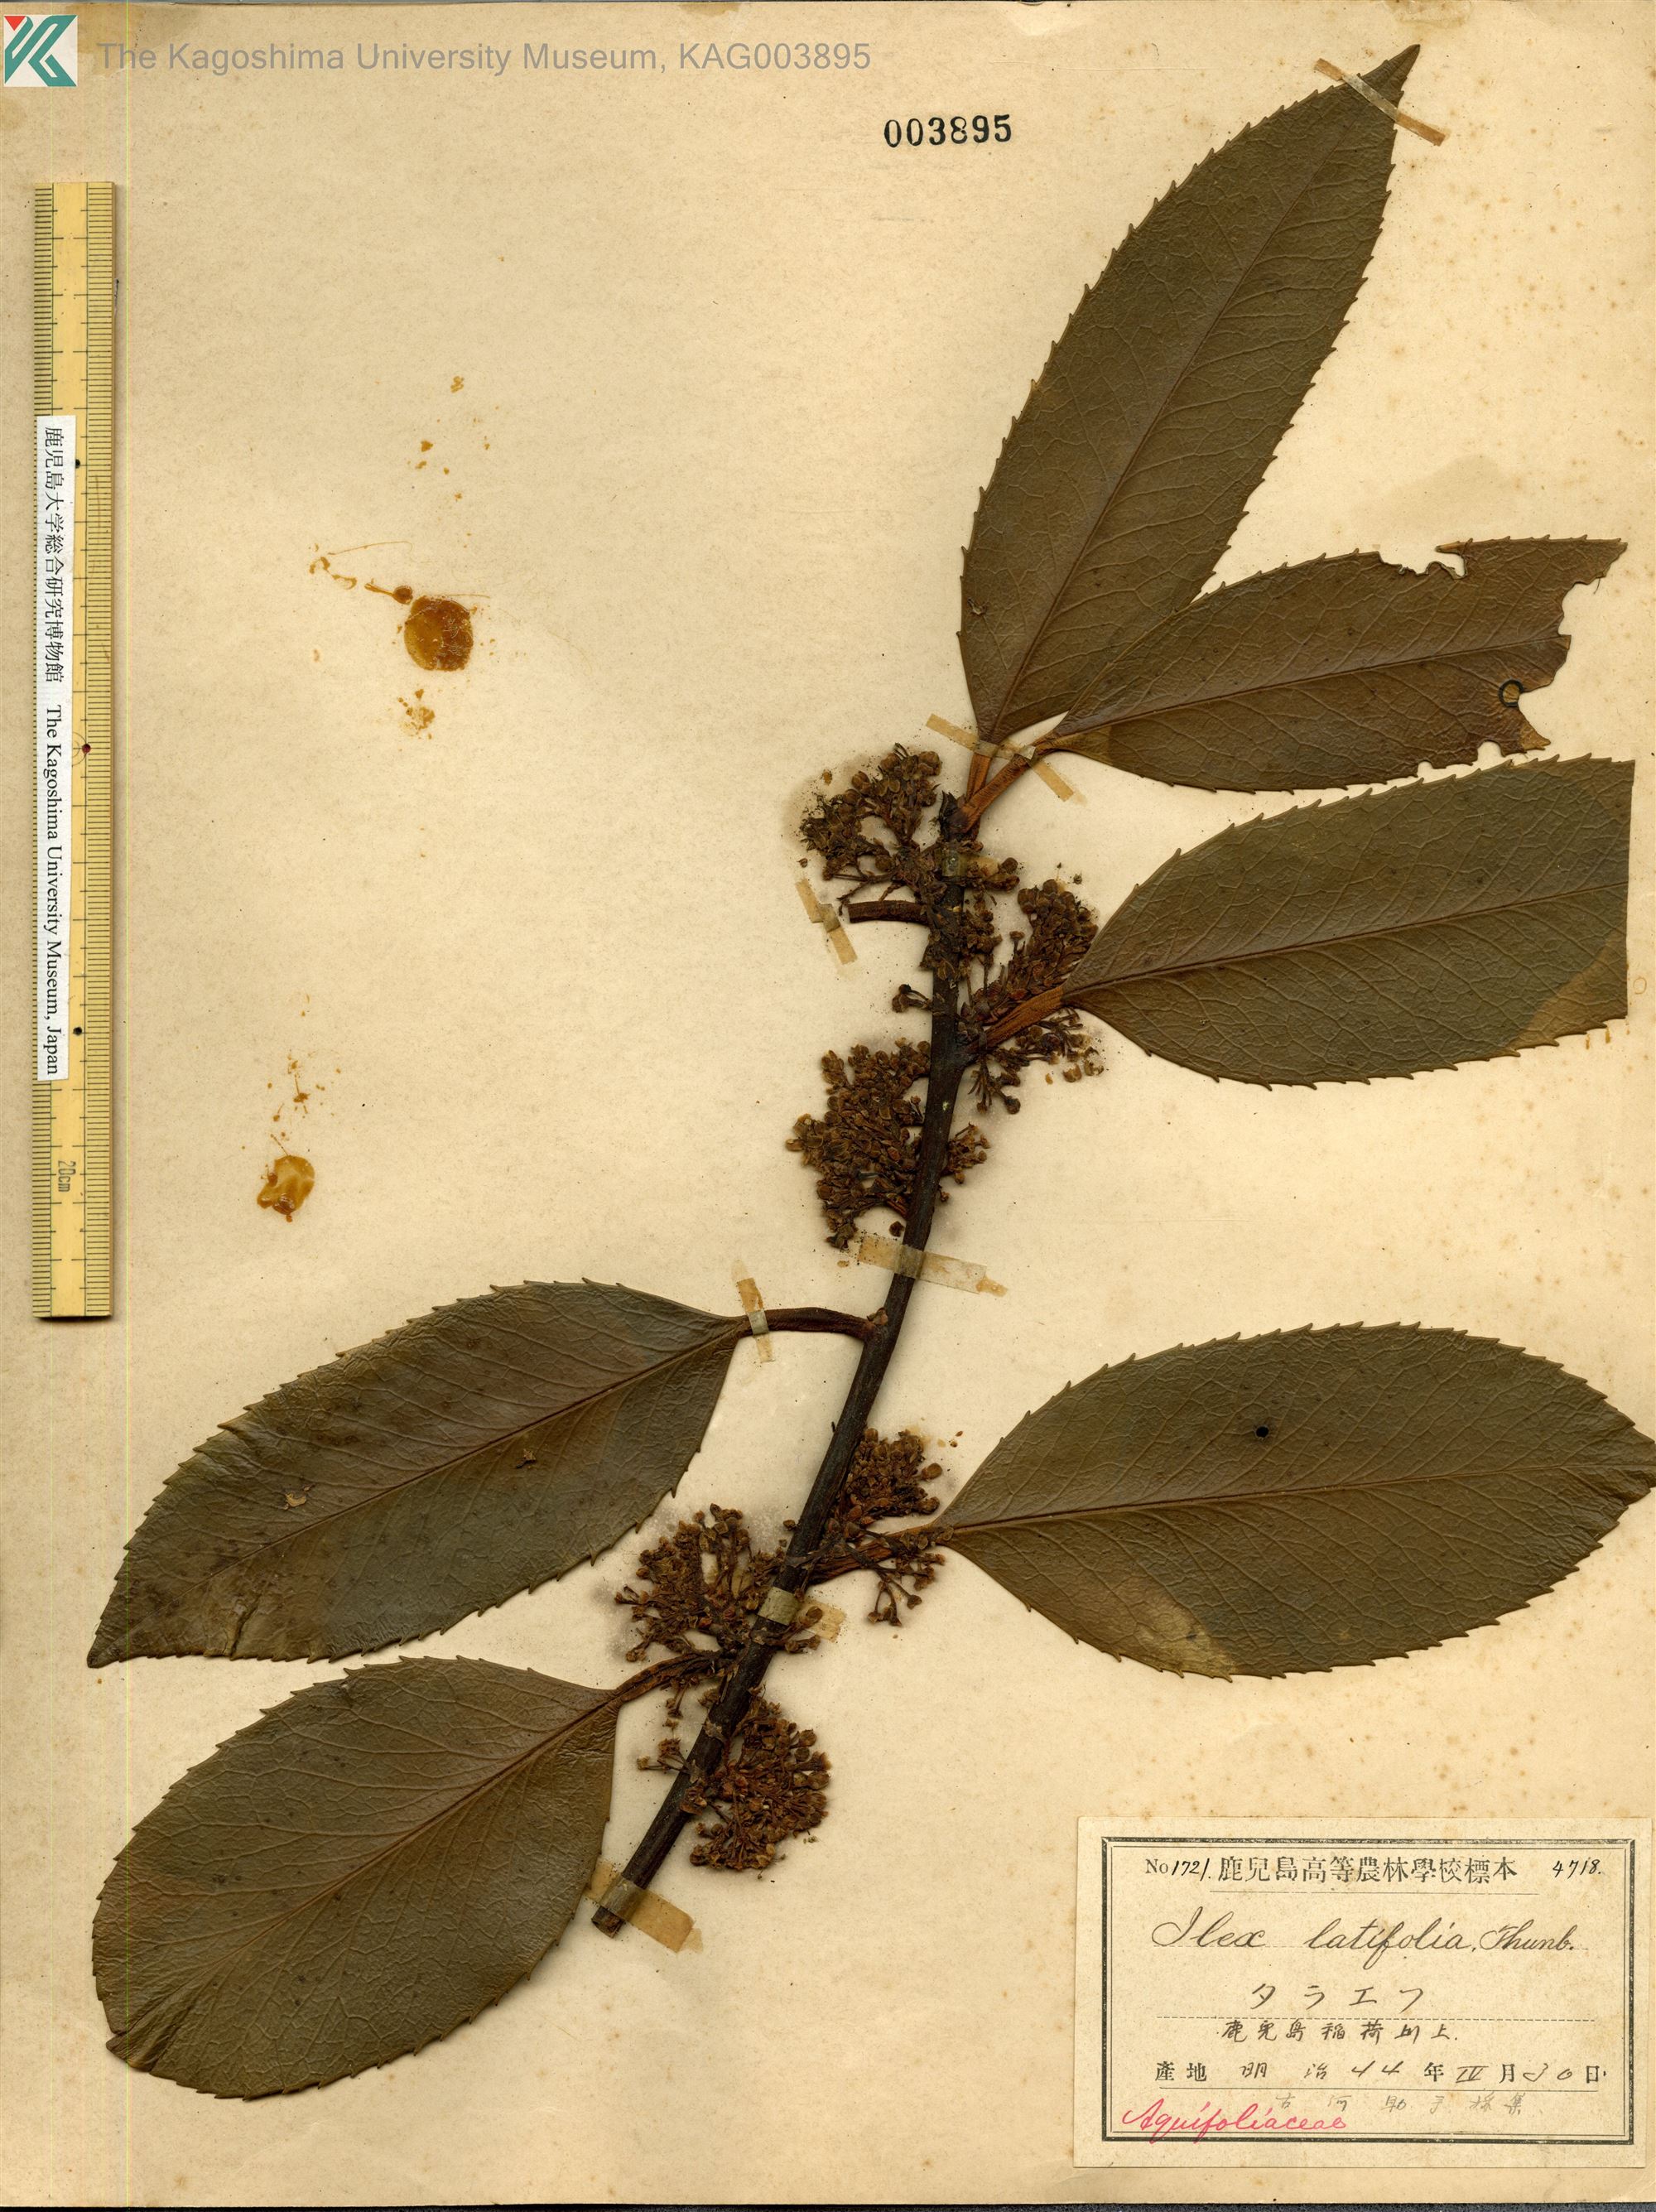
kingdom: Plantae
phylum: Tracheophyta
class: Magnoliopsida
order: Aquifoliales
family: Aquifoliaceae
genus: Ilex
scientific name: Ilex latifolia
